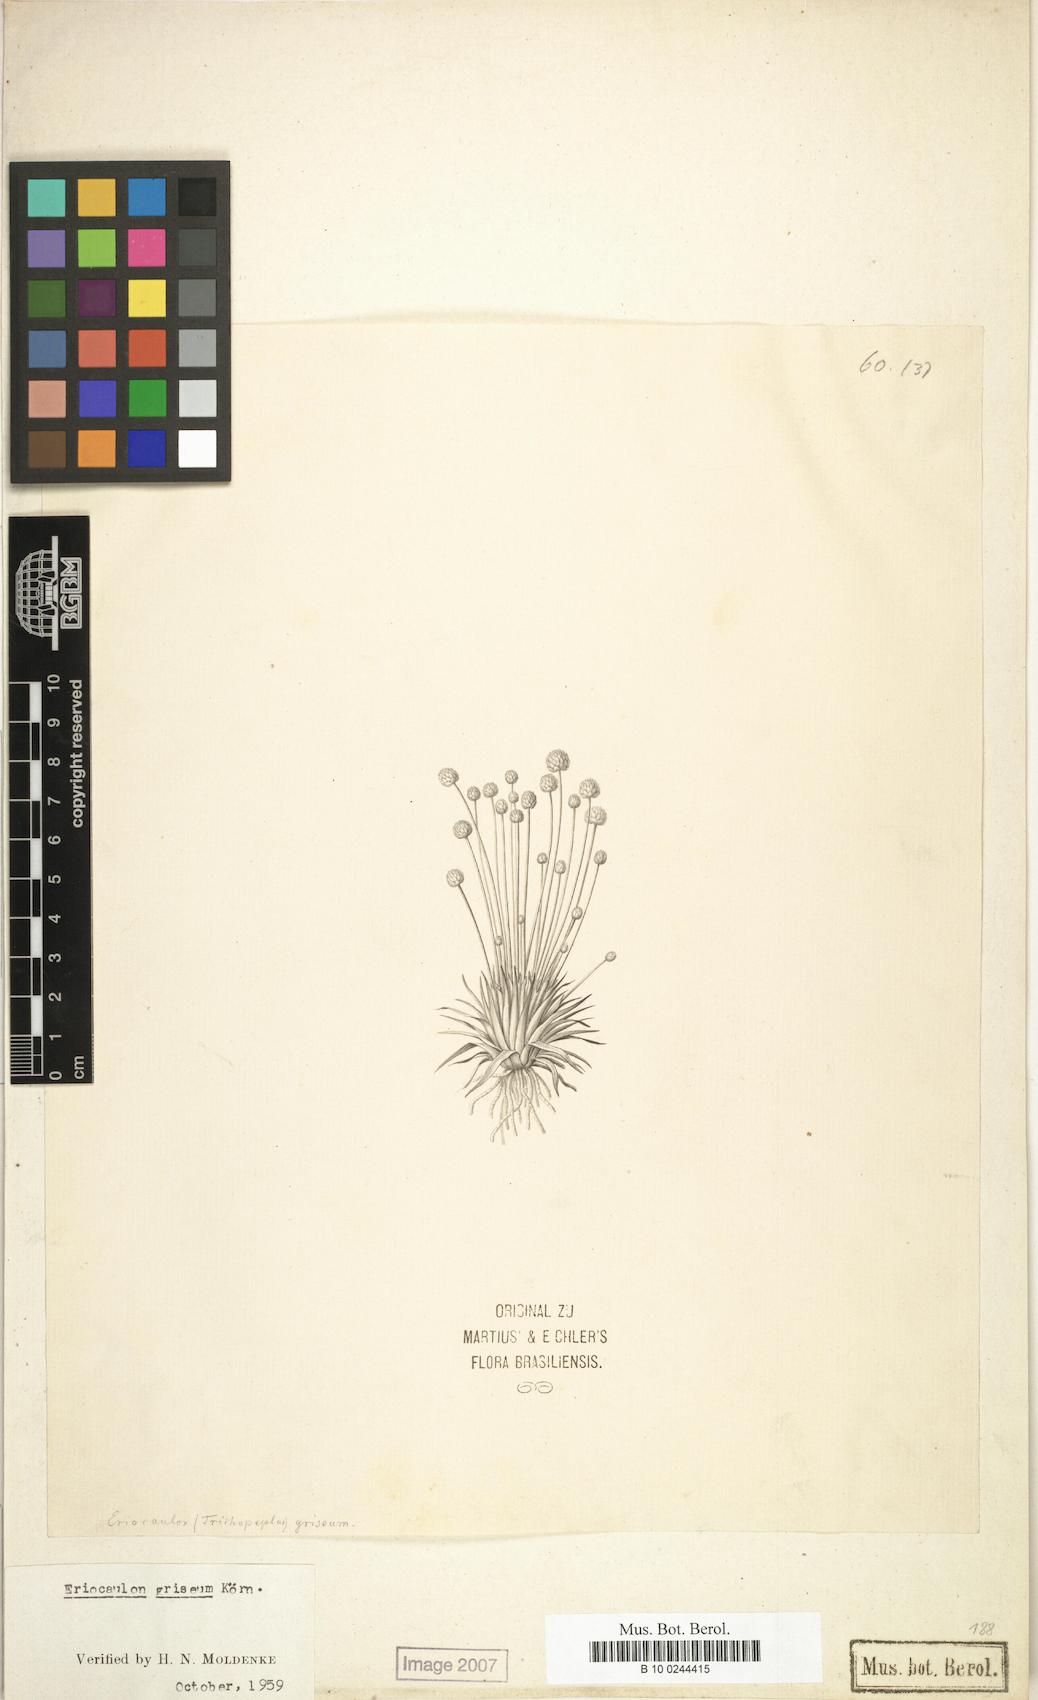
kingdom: Plantae
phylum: Tracheophyta
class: Liliopsida
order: Poales
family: Eriocaulaceae
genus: Eriocaulon
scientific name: Eriocaulon griseum
